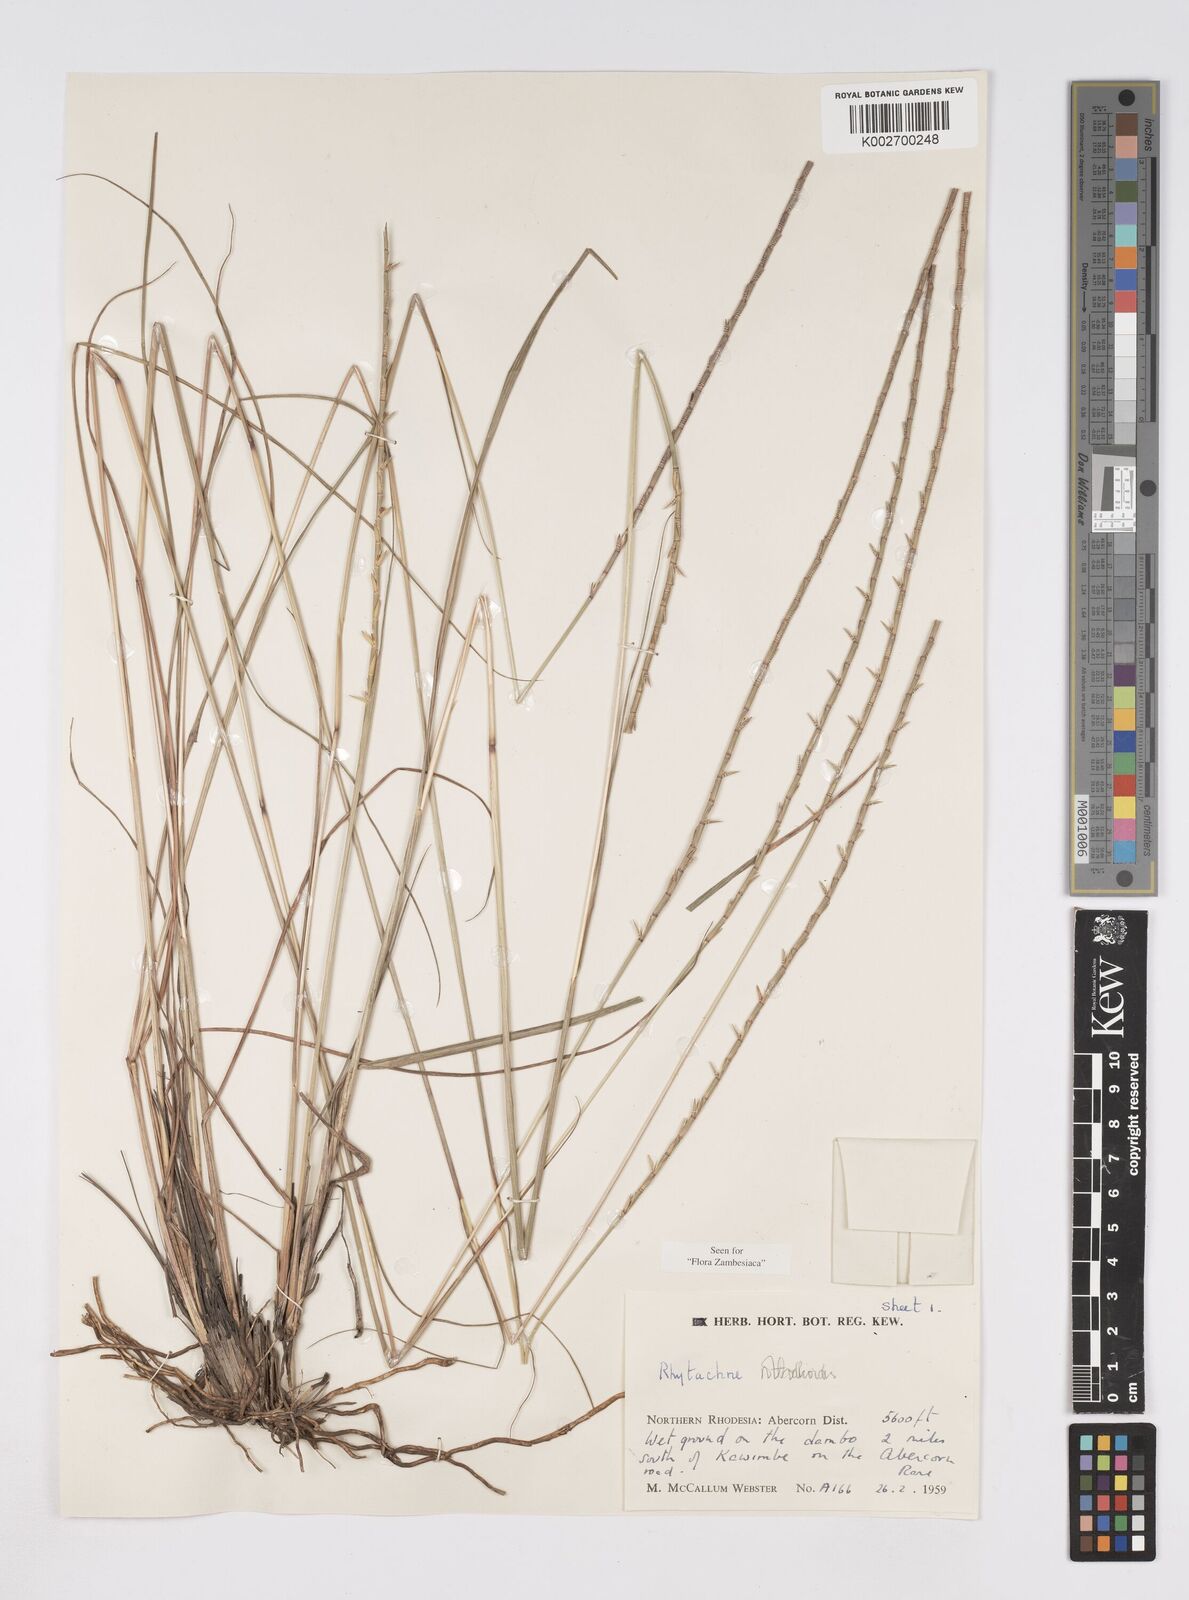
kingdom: Plantae
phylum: Tracheophyta
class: Liliopsida
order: Poales
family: Poaceae
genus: Rhytachne
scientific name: Rhytachne rottboellioides
